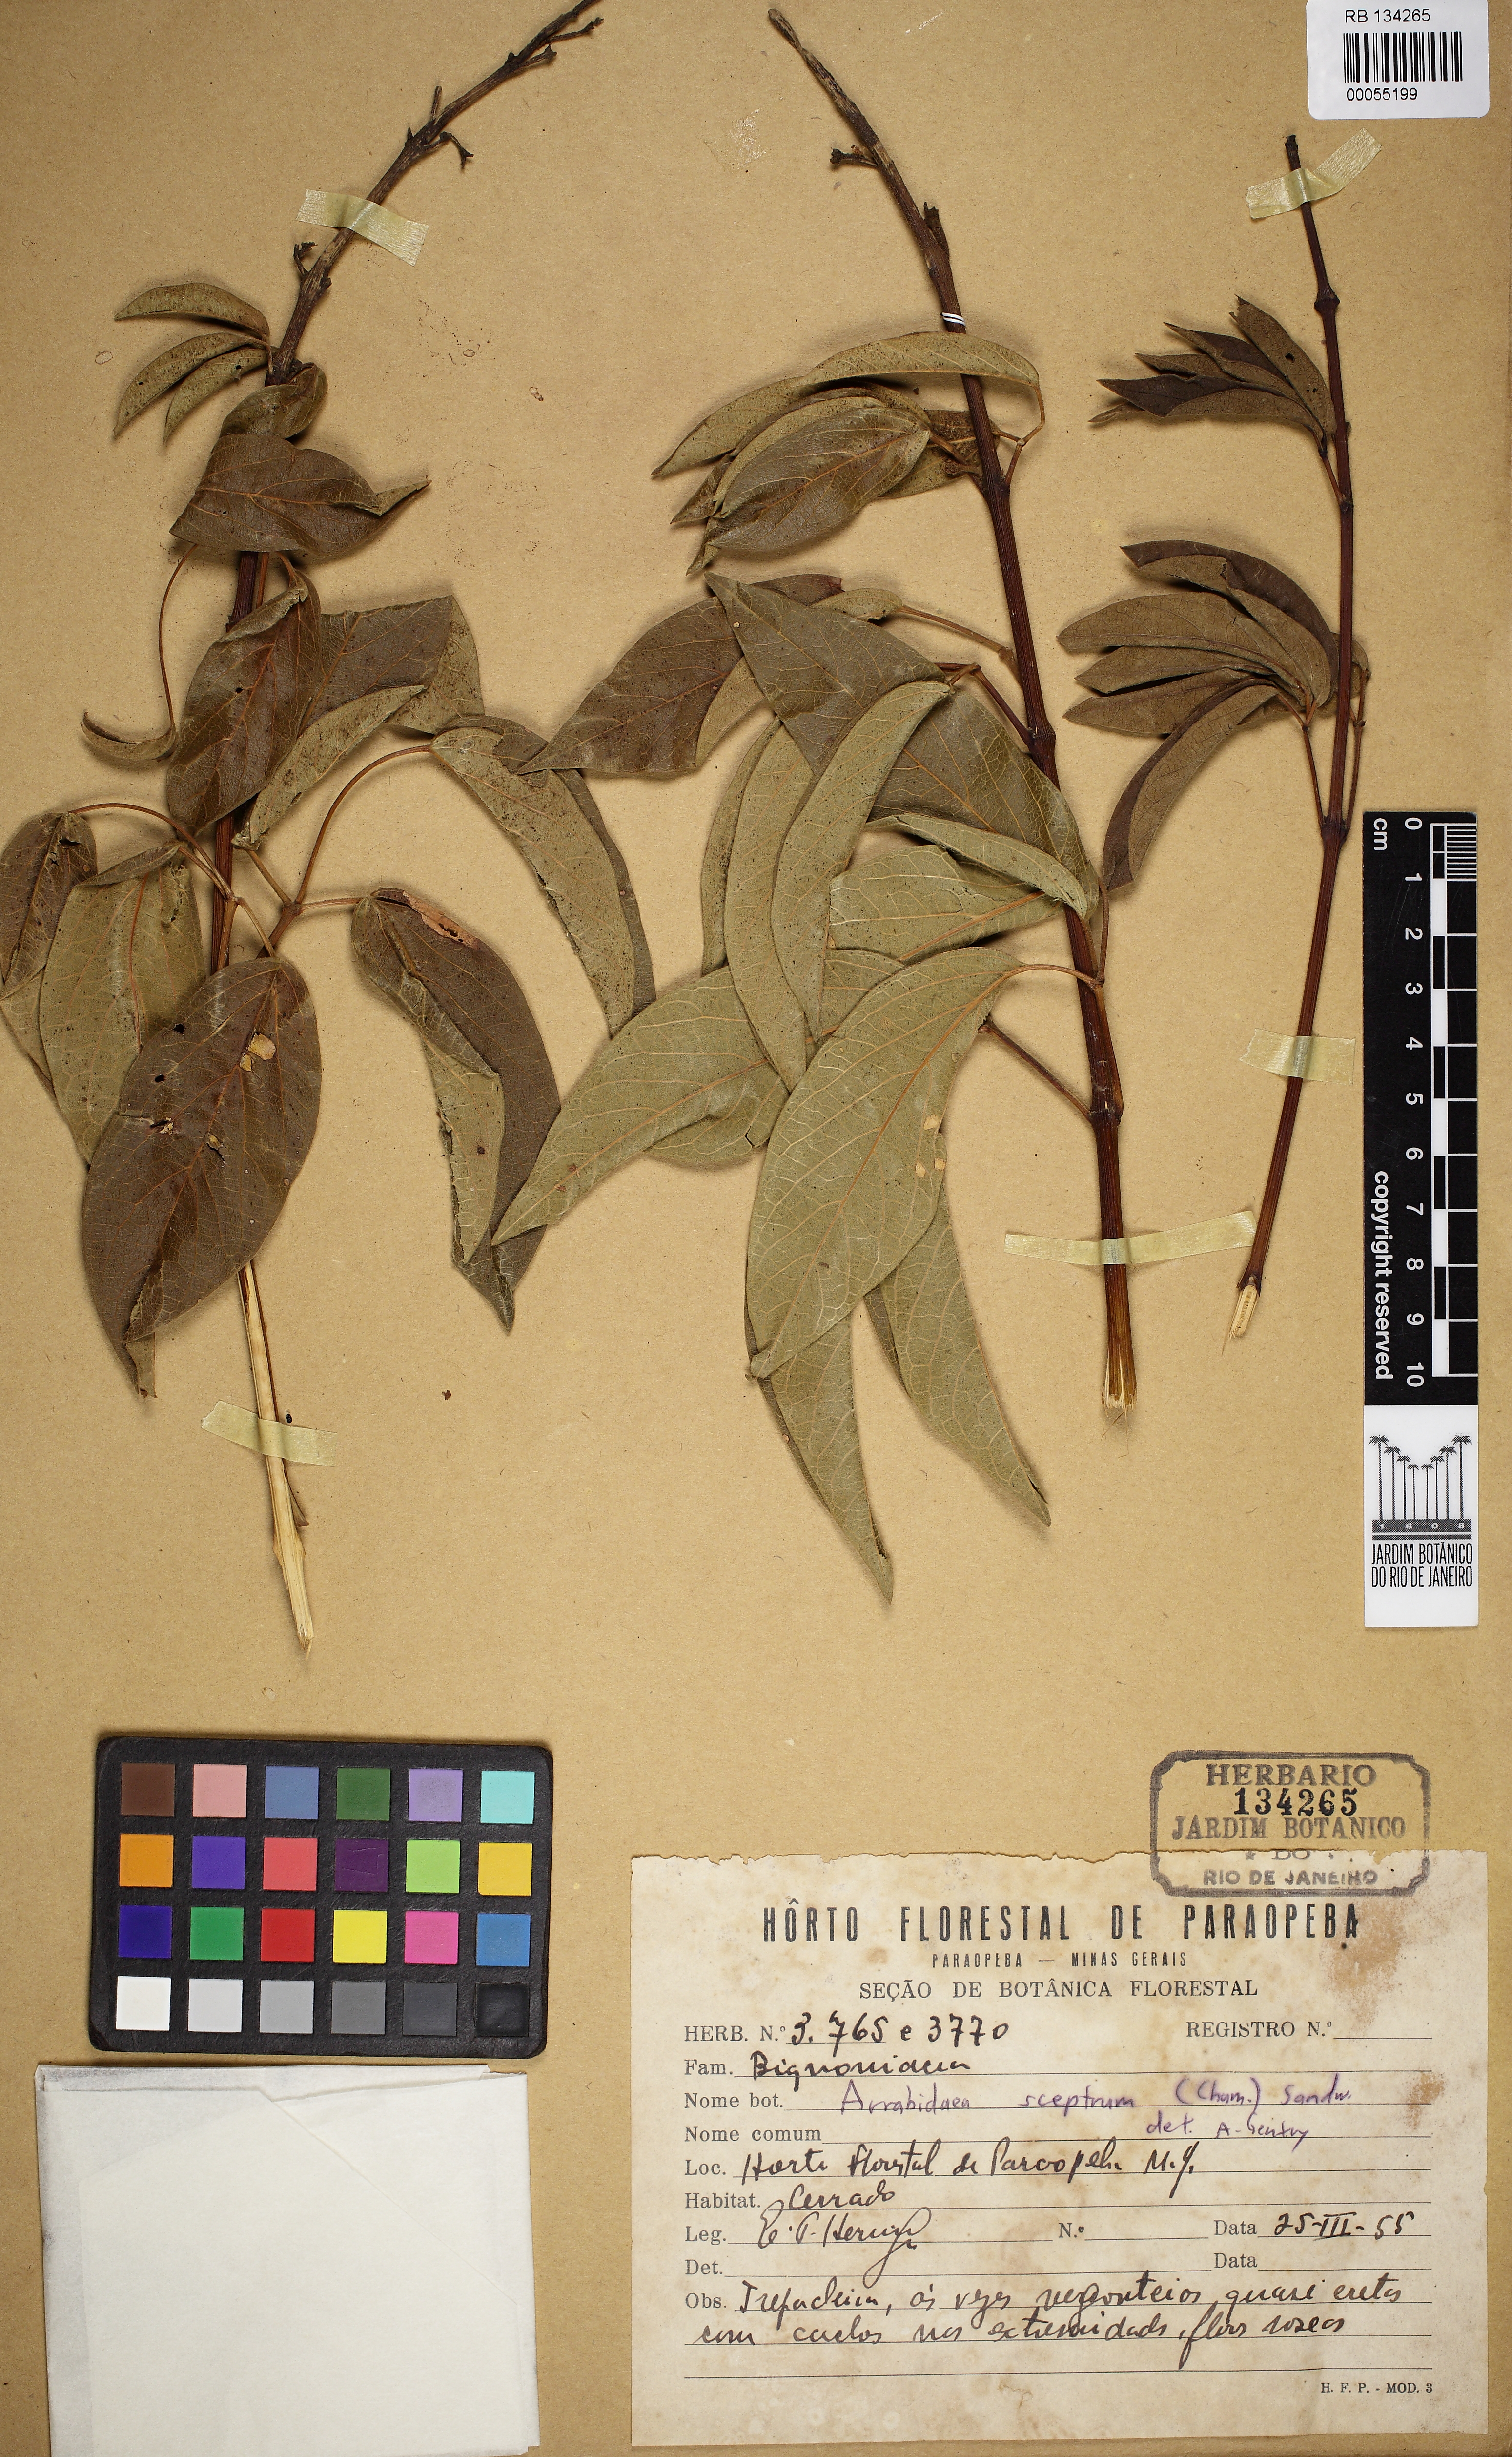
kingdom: Plantae
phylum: Tracheophyta
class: Magnoliopsida
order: Lamiales
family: Bignoniaceae
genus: Cuspidaria
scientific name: Cuspidaria pulchra
